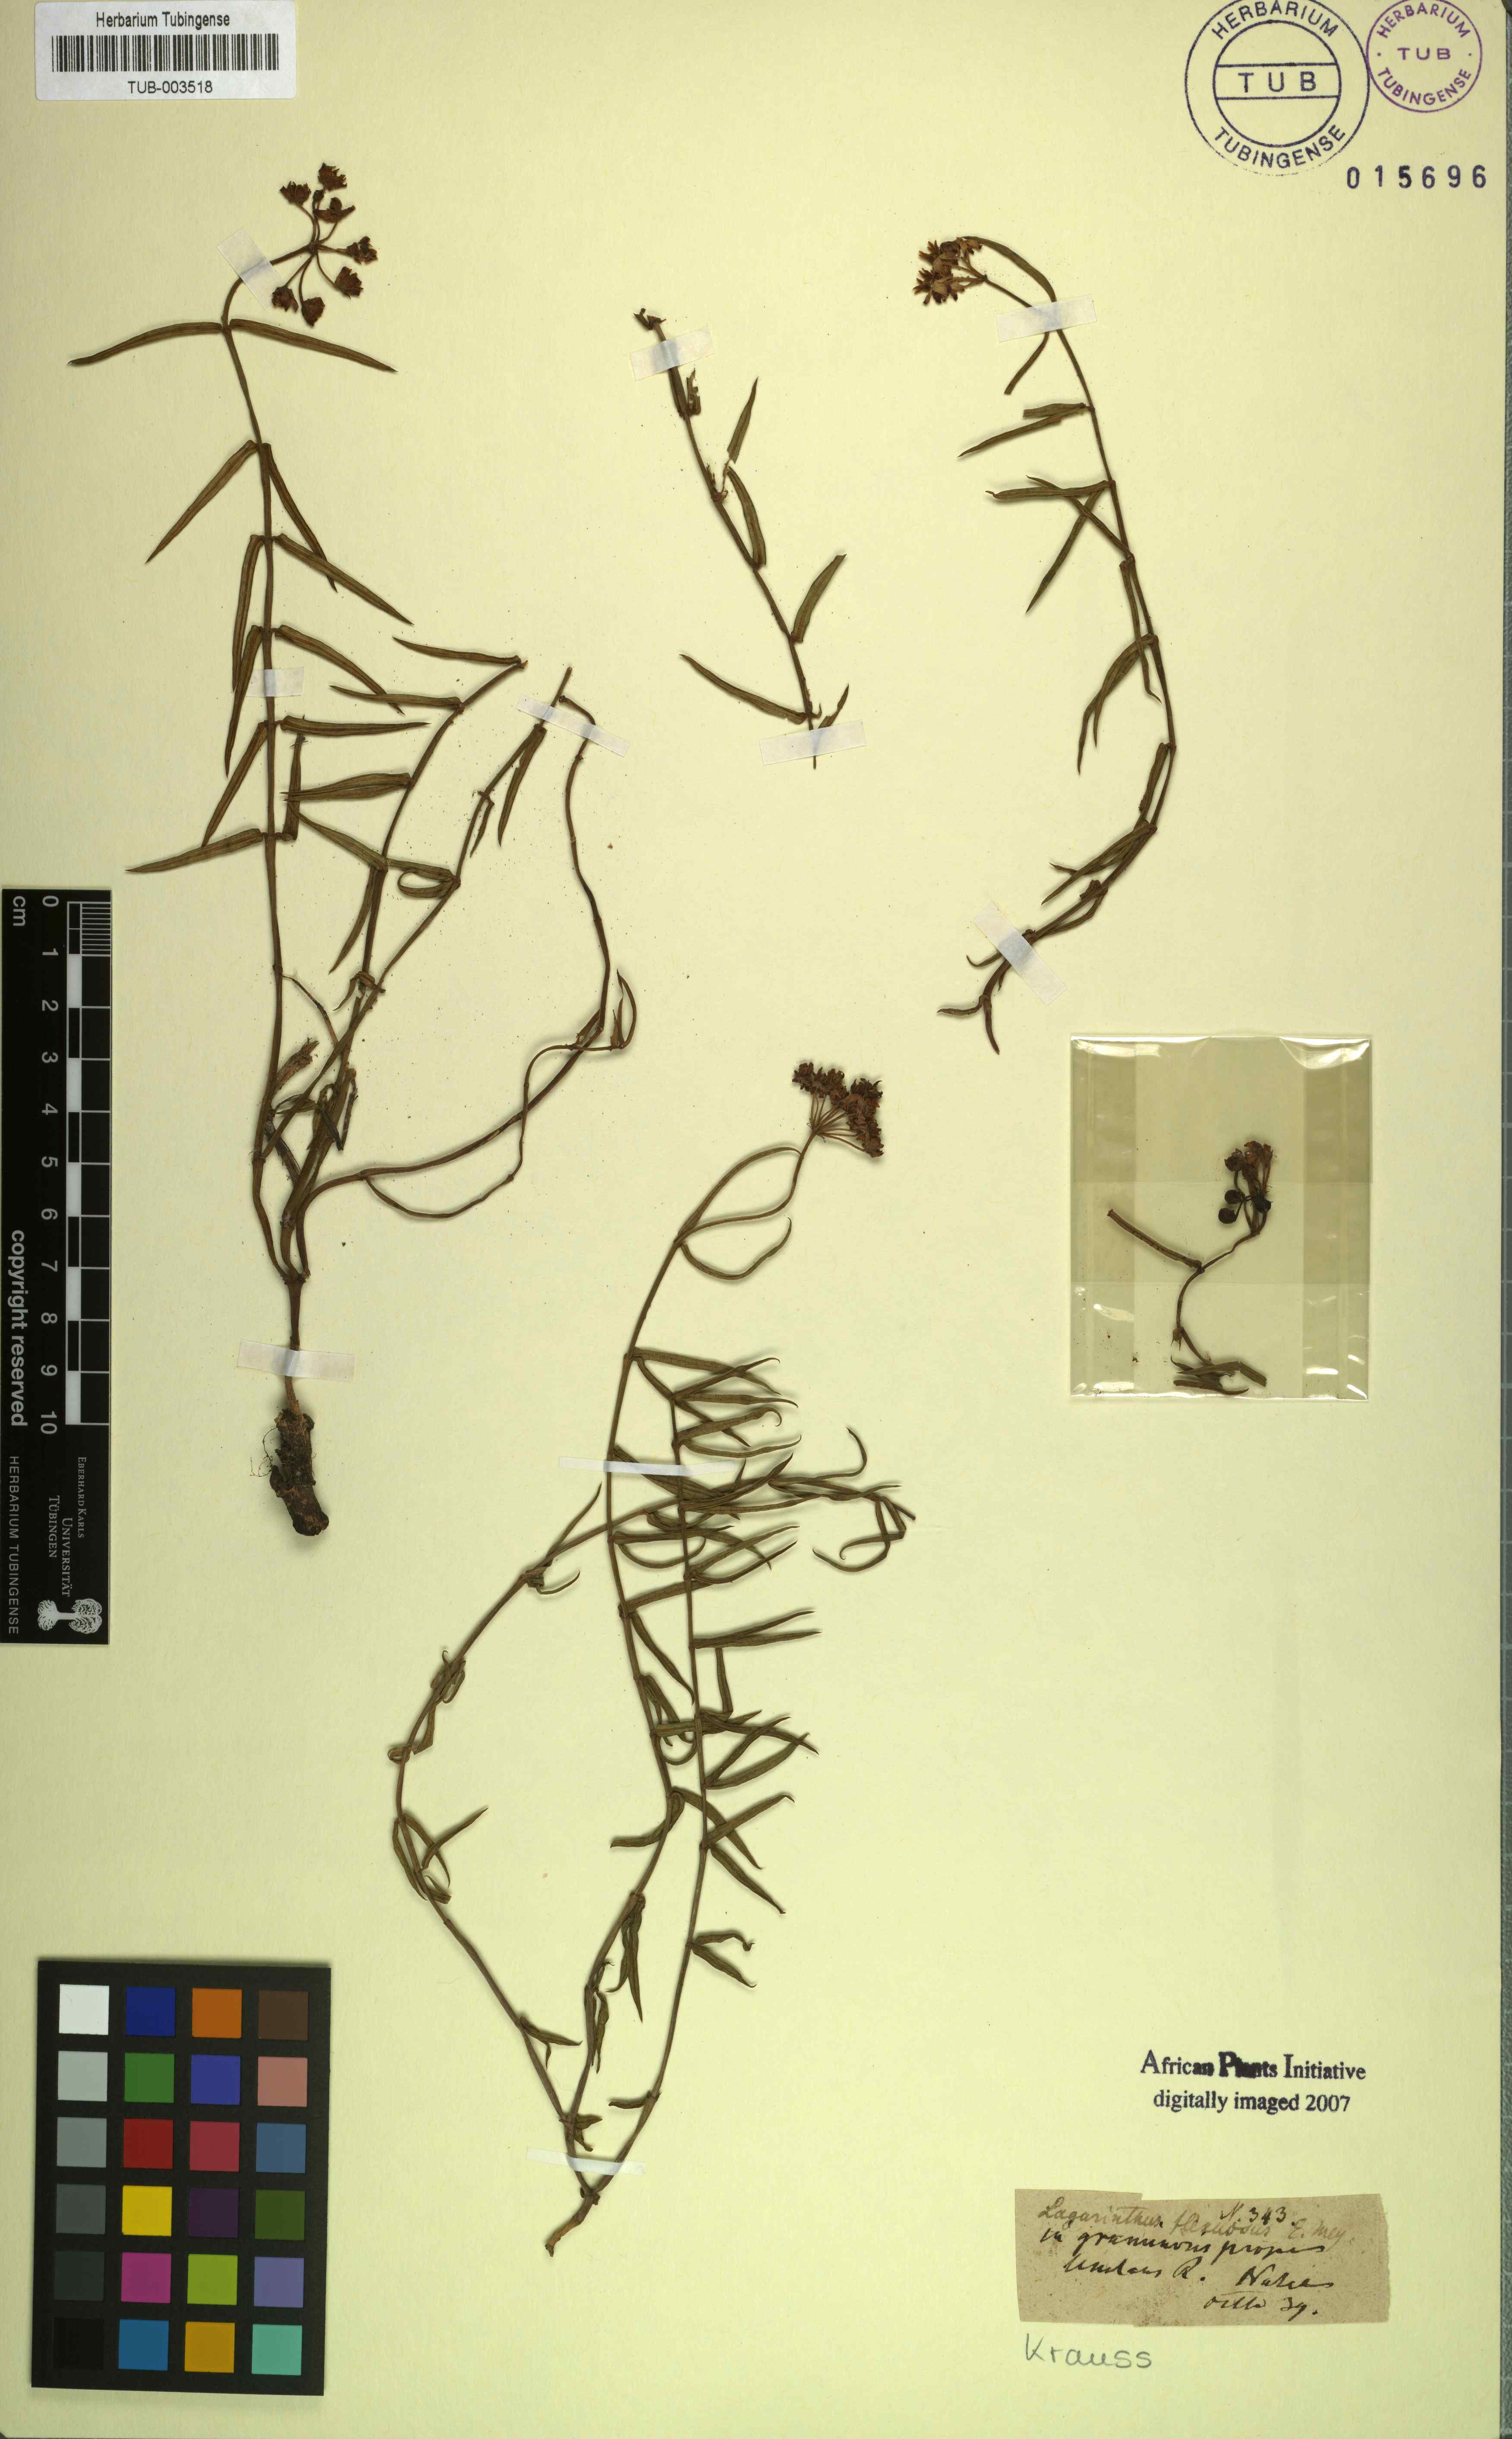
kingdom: Plantae
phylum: Tracheophyta
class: Magnoliopsida
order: Gentianales
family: Apocynaceae
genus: Asclepias
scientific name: Asclepias flexuosa
